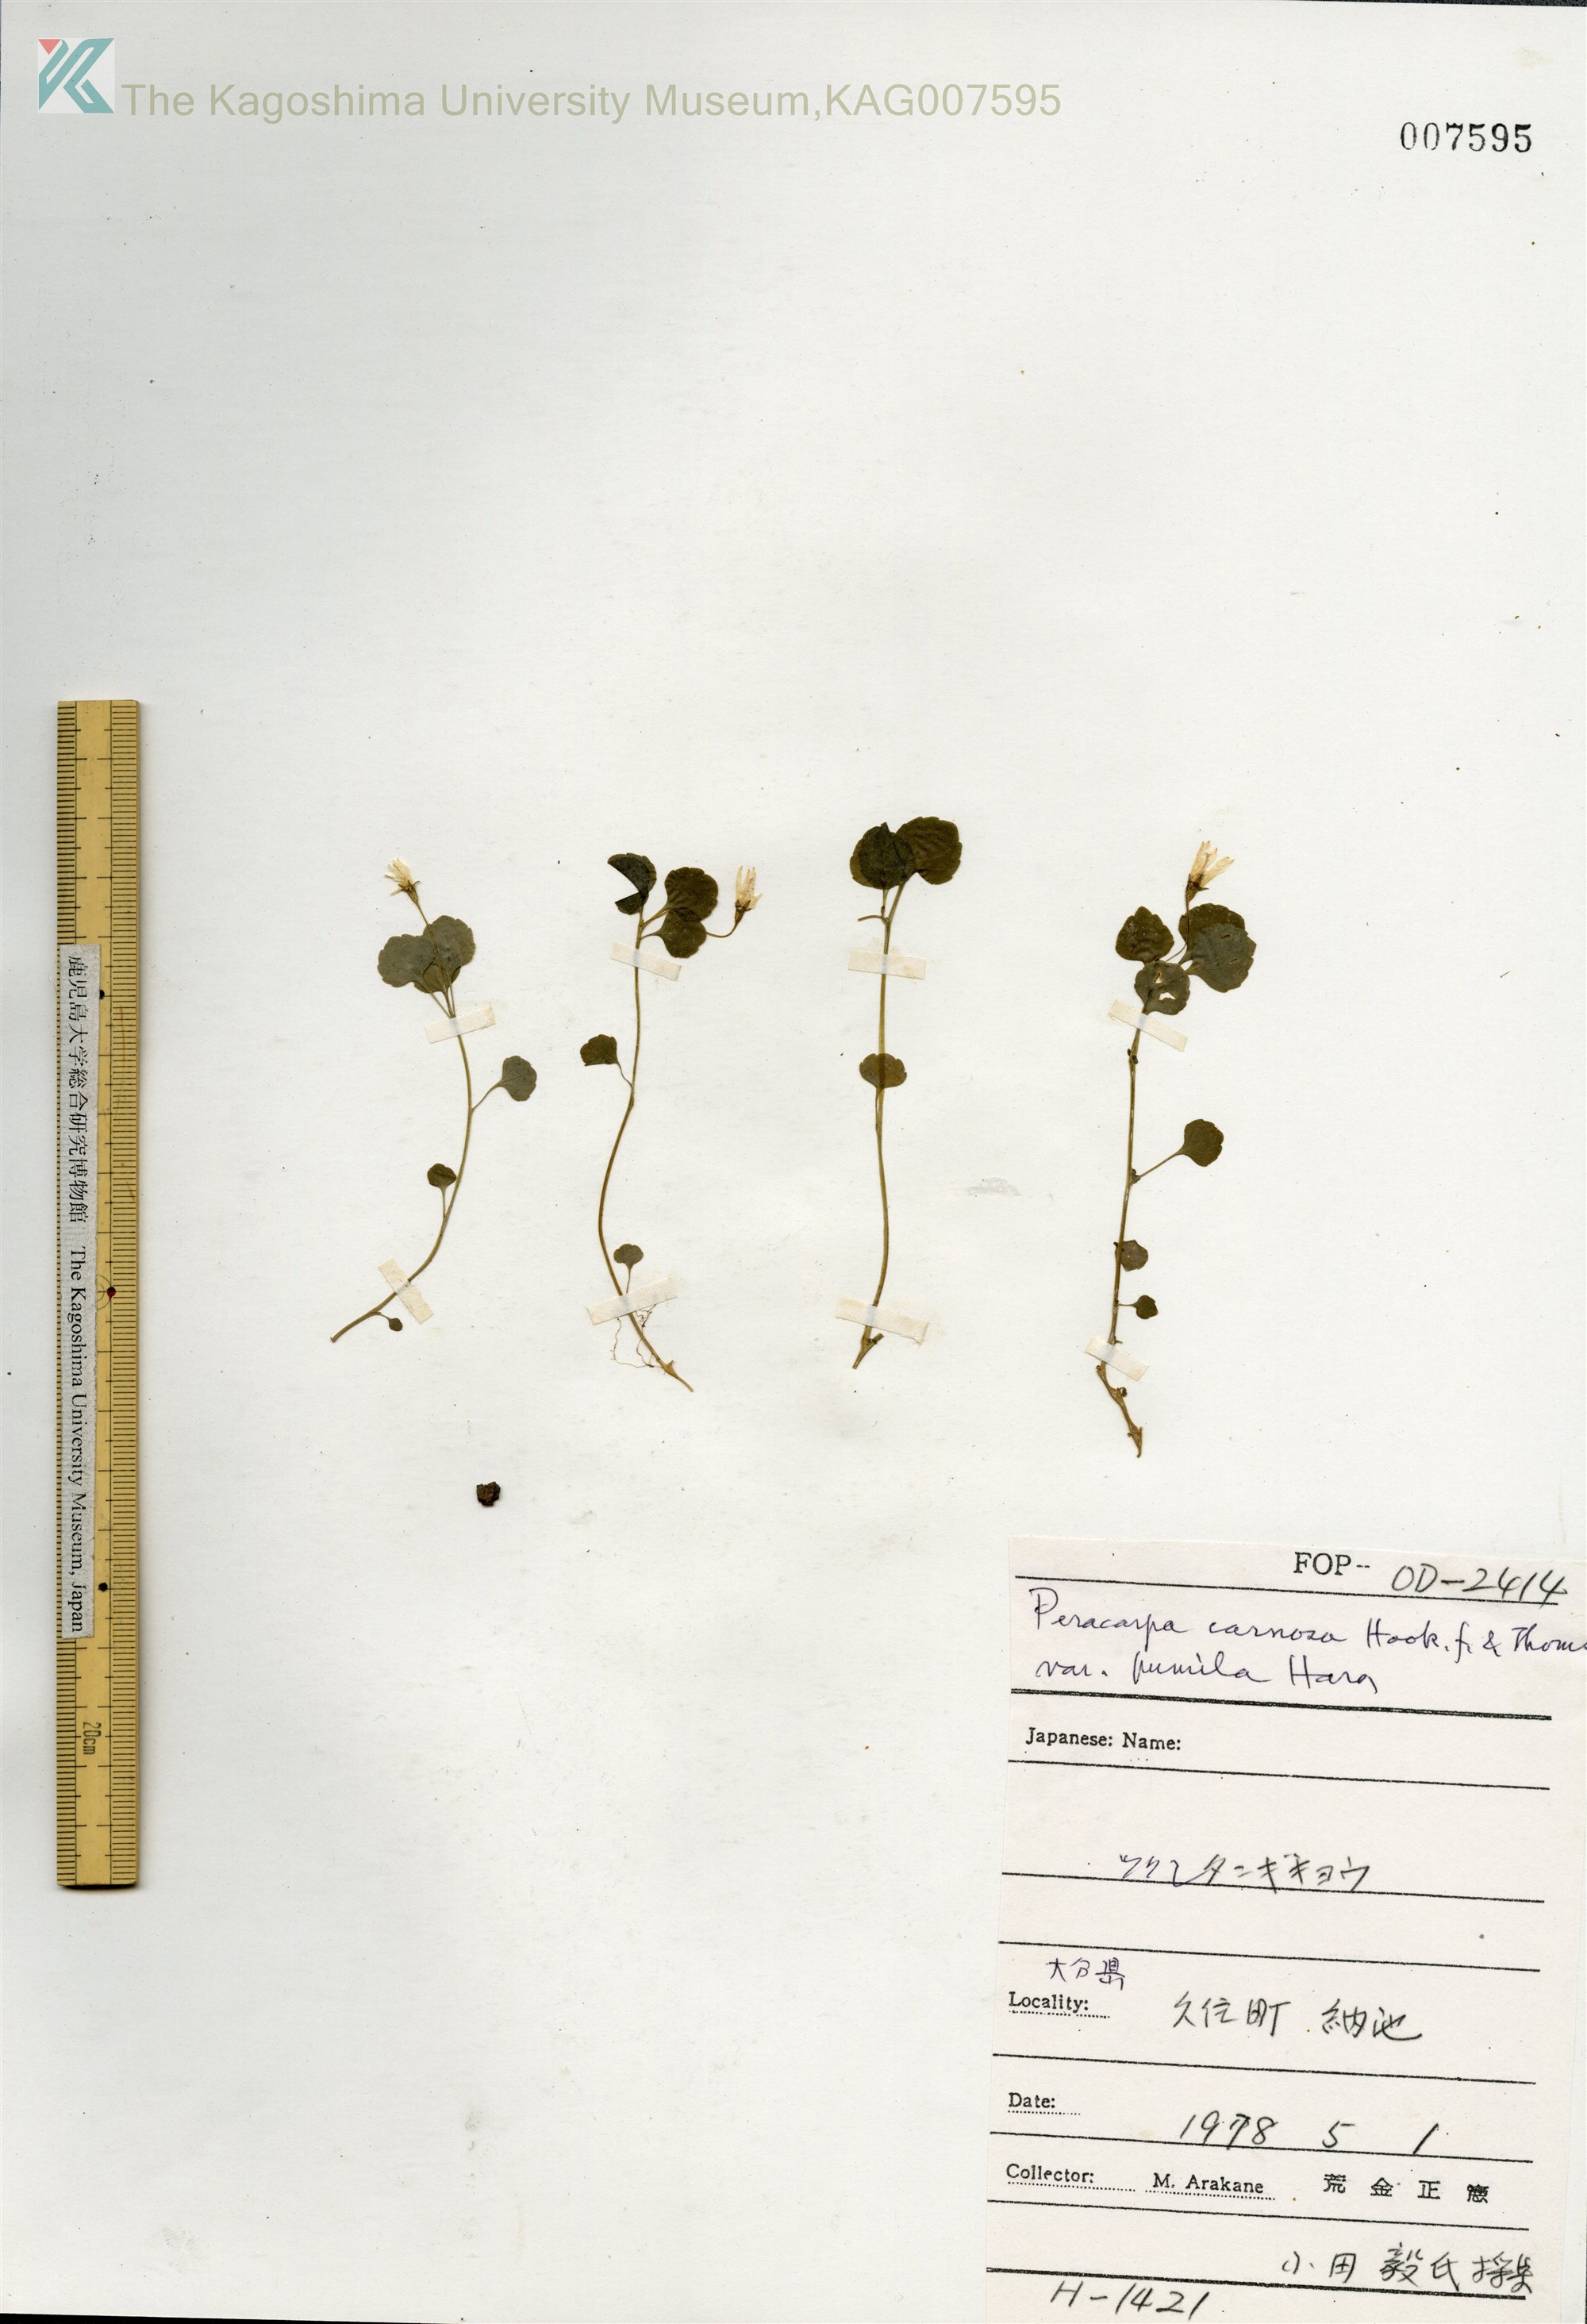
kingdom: Plantae
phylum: Tracheophyta
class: Magnoliopsida
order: Asterales
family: Campanulaceae
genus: Peracarpa
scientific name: Peracarpa carnosa
